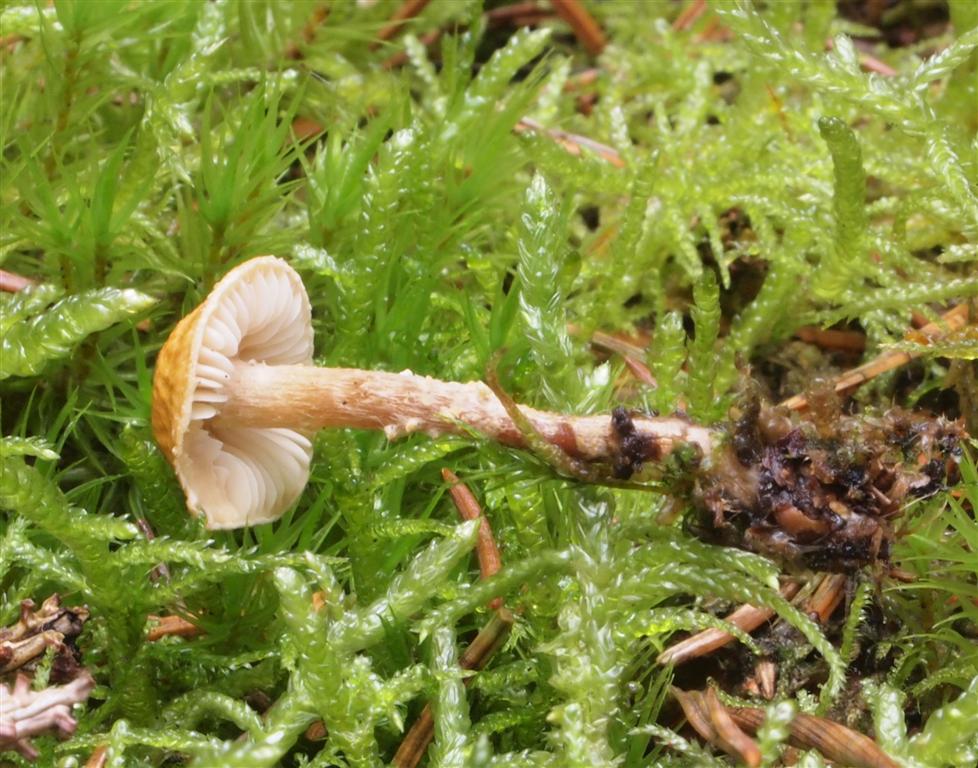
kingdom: Fungi
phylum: Basidiomycota
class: Agaricomycetes
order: Agaricales
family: Tricholomataceae
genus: Cystoderma
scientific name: Cystoderma amianthinum
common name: okkergul grynhat
